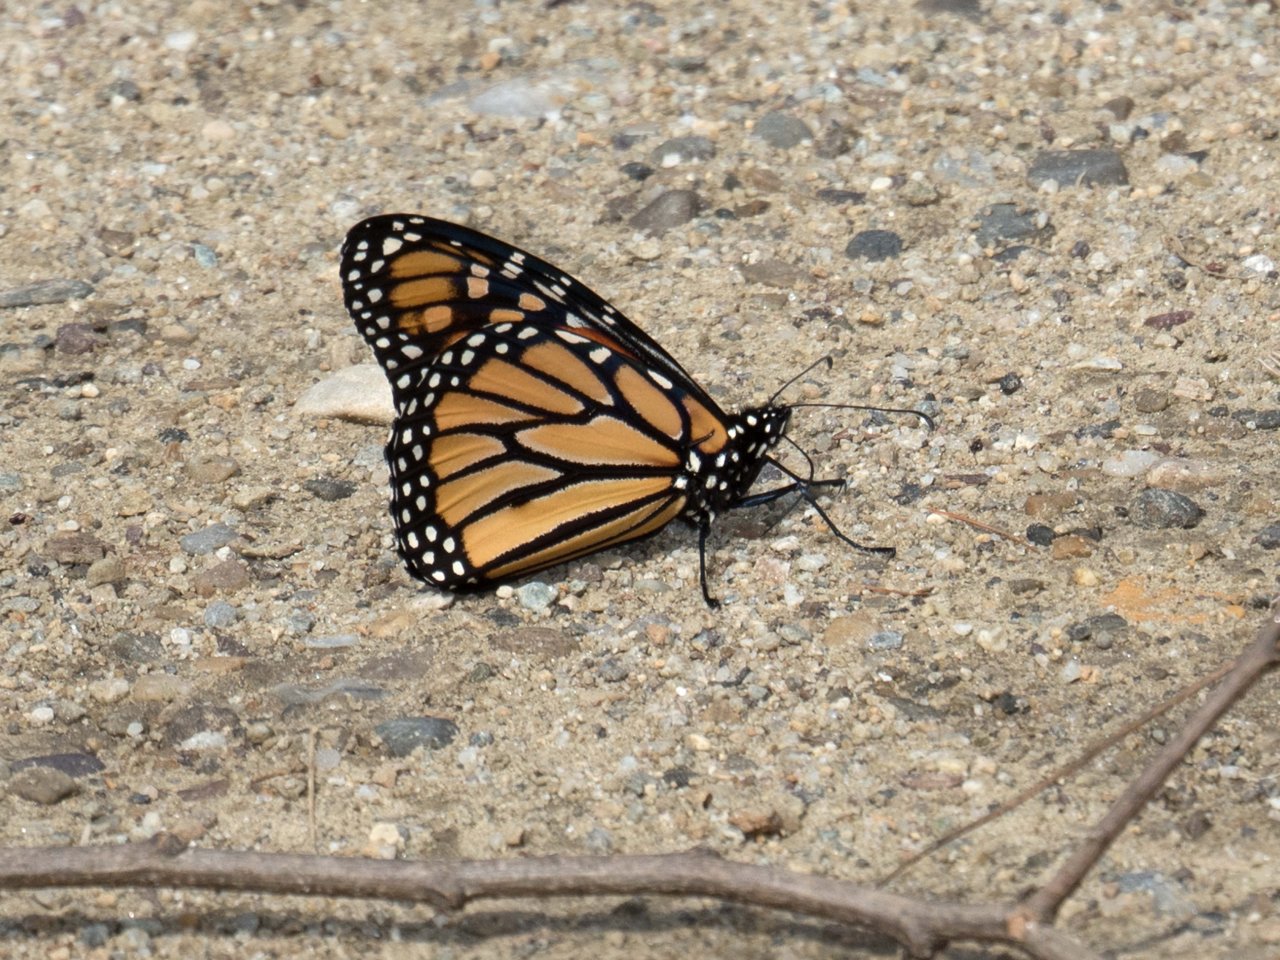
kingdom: Animalia
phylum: Arthropoda
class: Insecta
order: Lepidoptera
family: Nymphalidae
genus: Danaus
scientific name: Danaus plexippus
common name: Monarch
